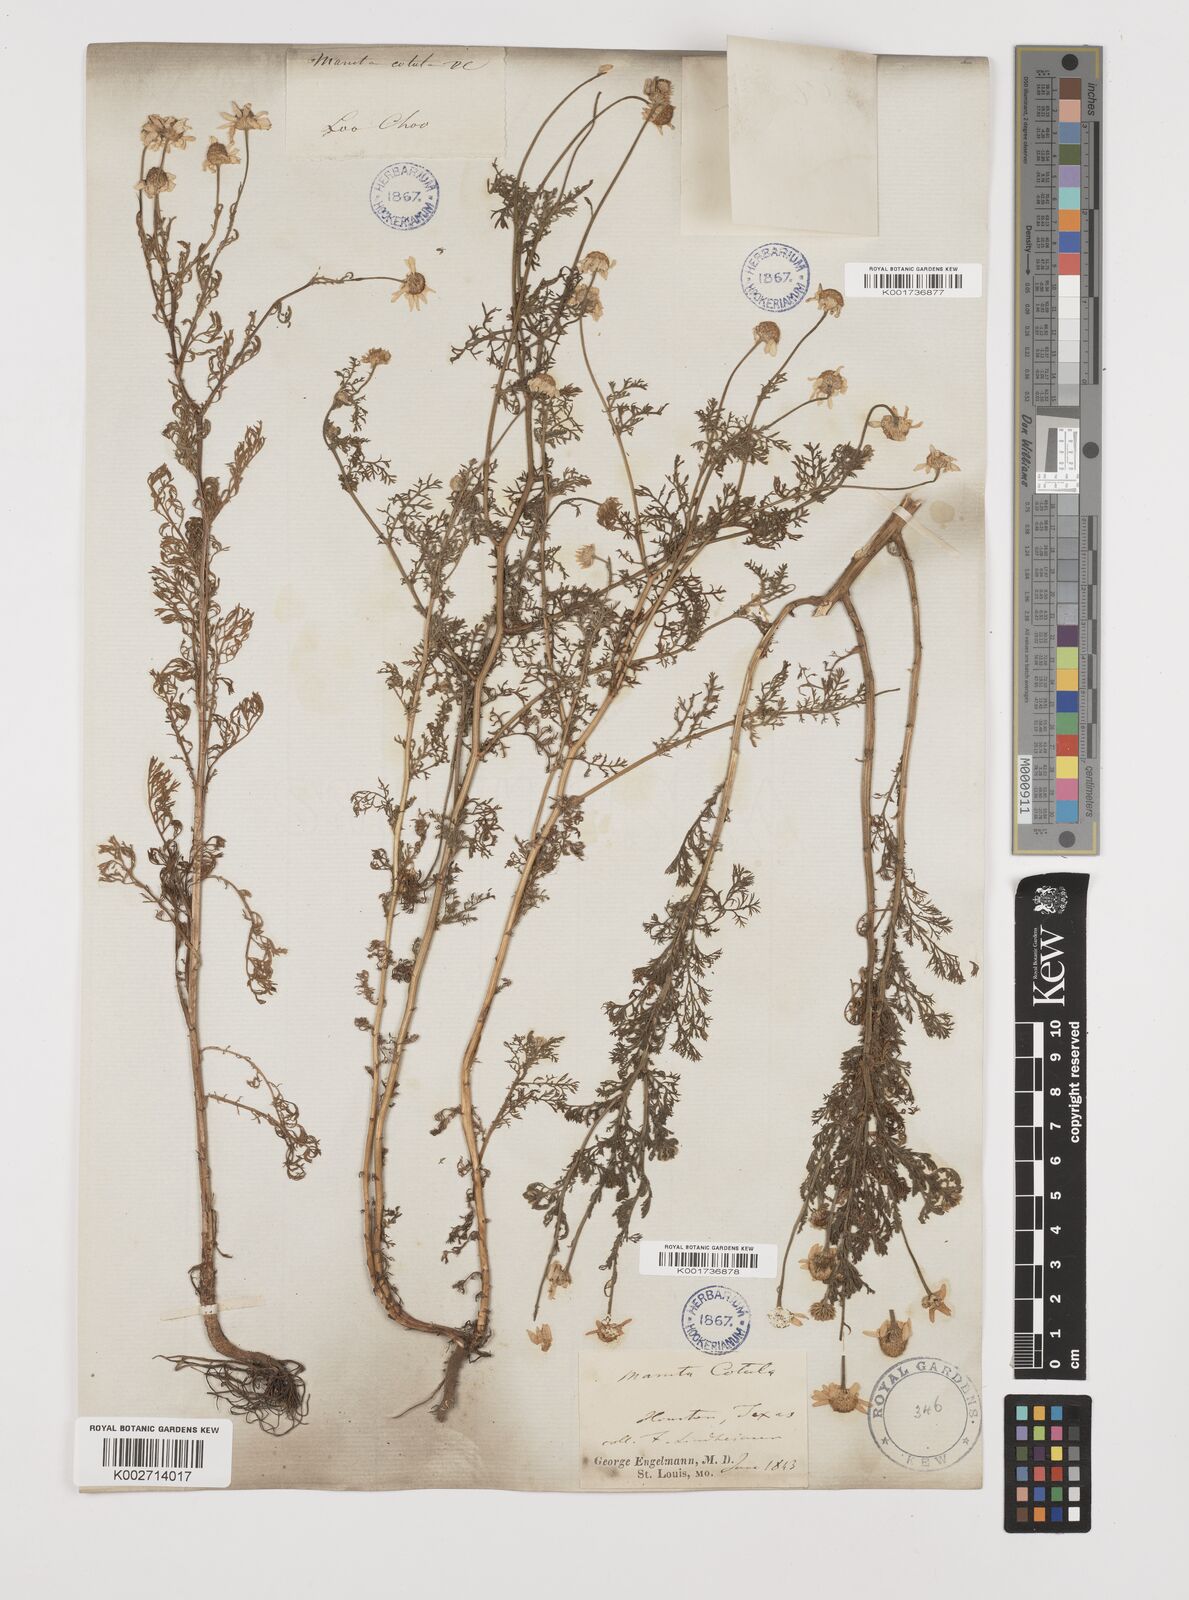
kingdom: Plantae
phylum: Tracheophyta
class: Magnoliopsida
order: Asterales
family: Asteraceae
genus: Anthemis
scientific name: Anthemis cotula
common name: Stinking chamomile
